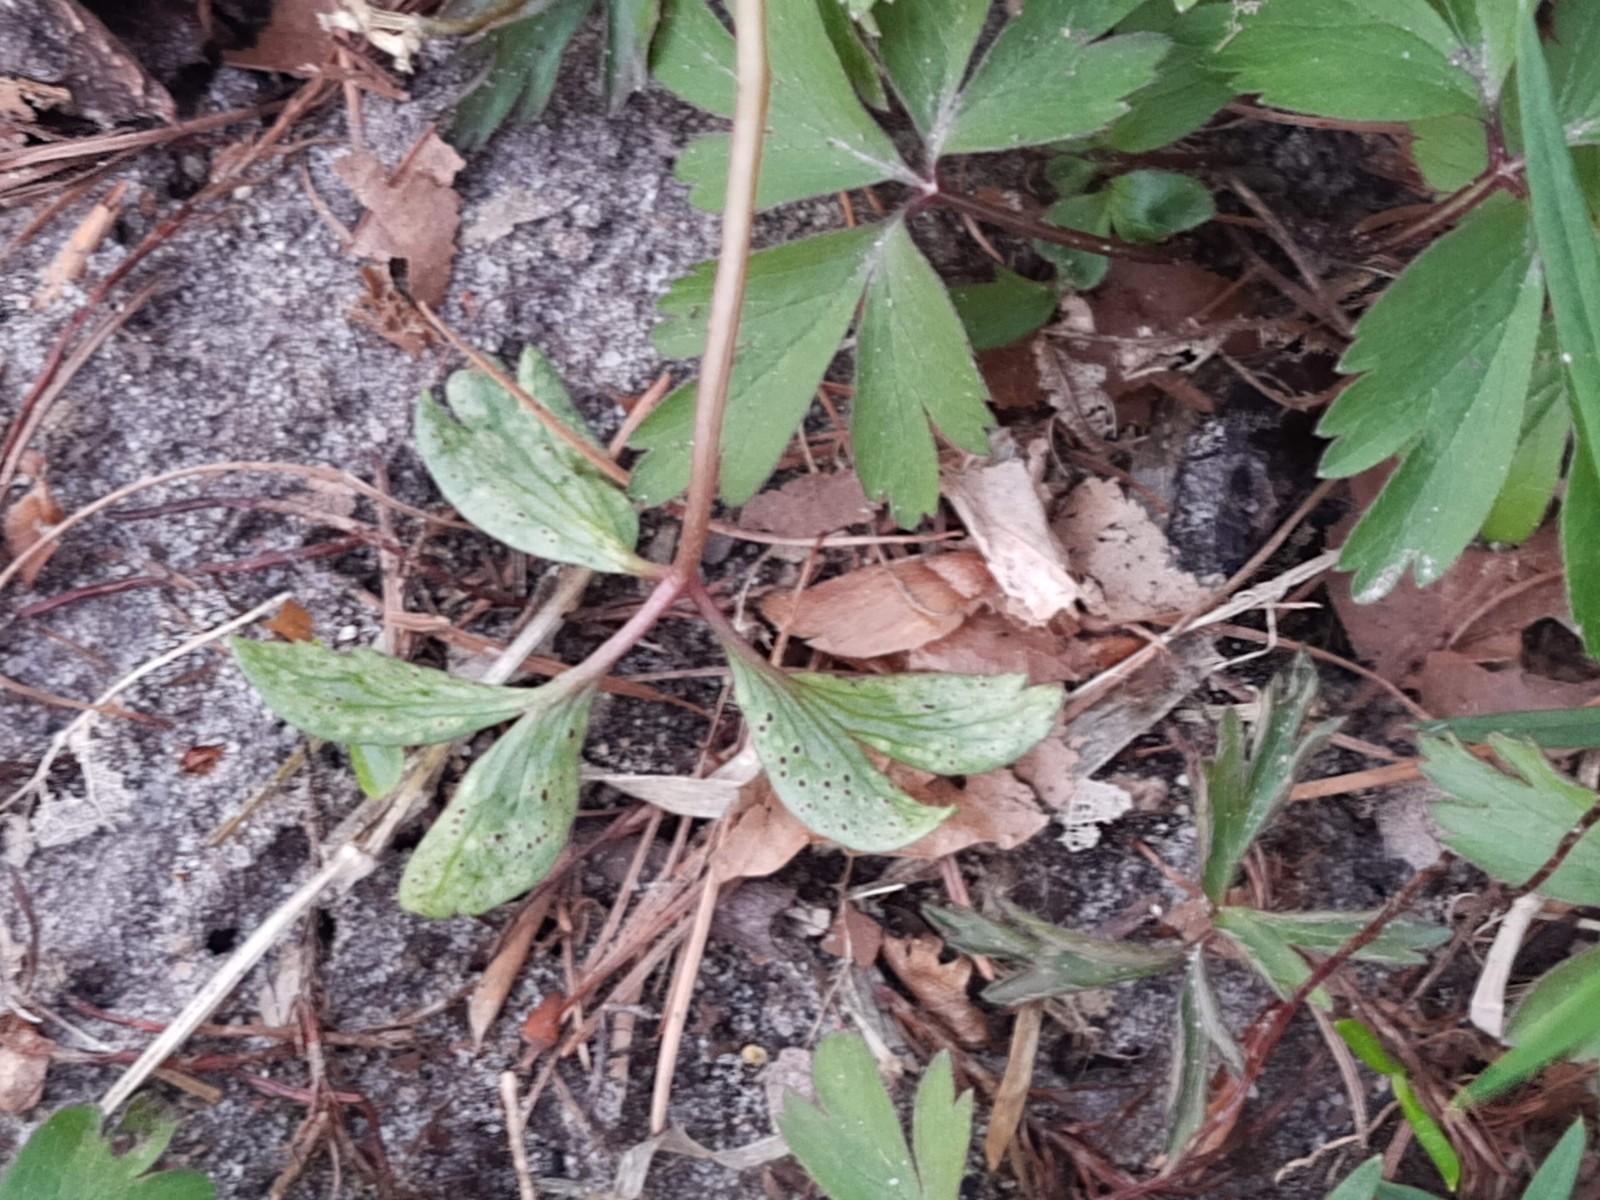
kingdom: Fungi
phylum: Basidiomycota
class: Pucciniomycetes
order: Pucciniales
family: Tranzscheliaceae
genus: Tranzschelia
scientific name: Tranzschelia anemones
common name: anemone-knæksporerust
